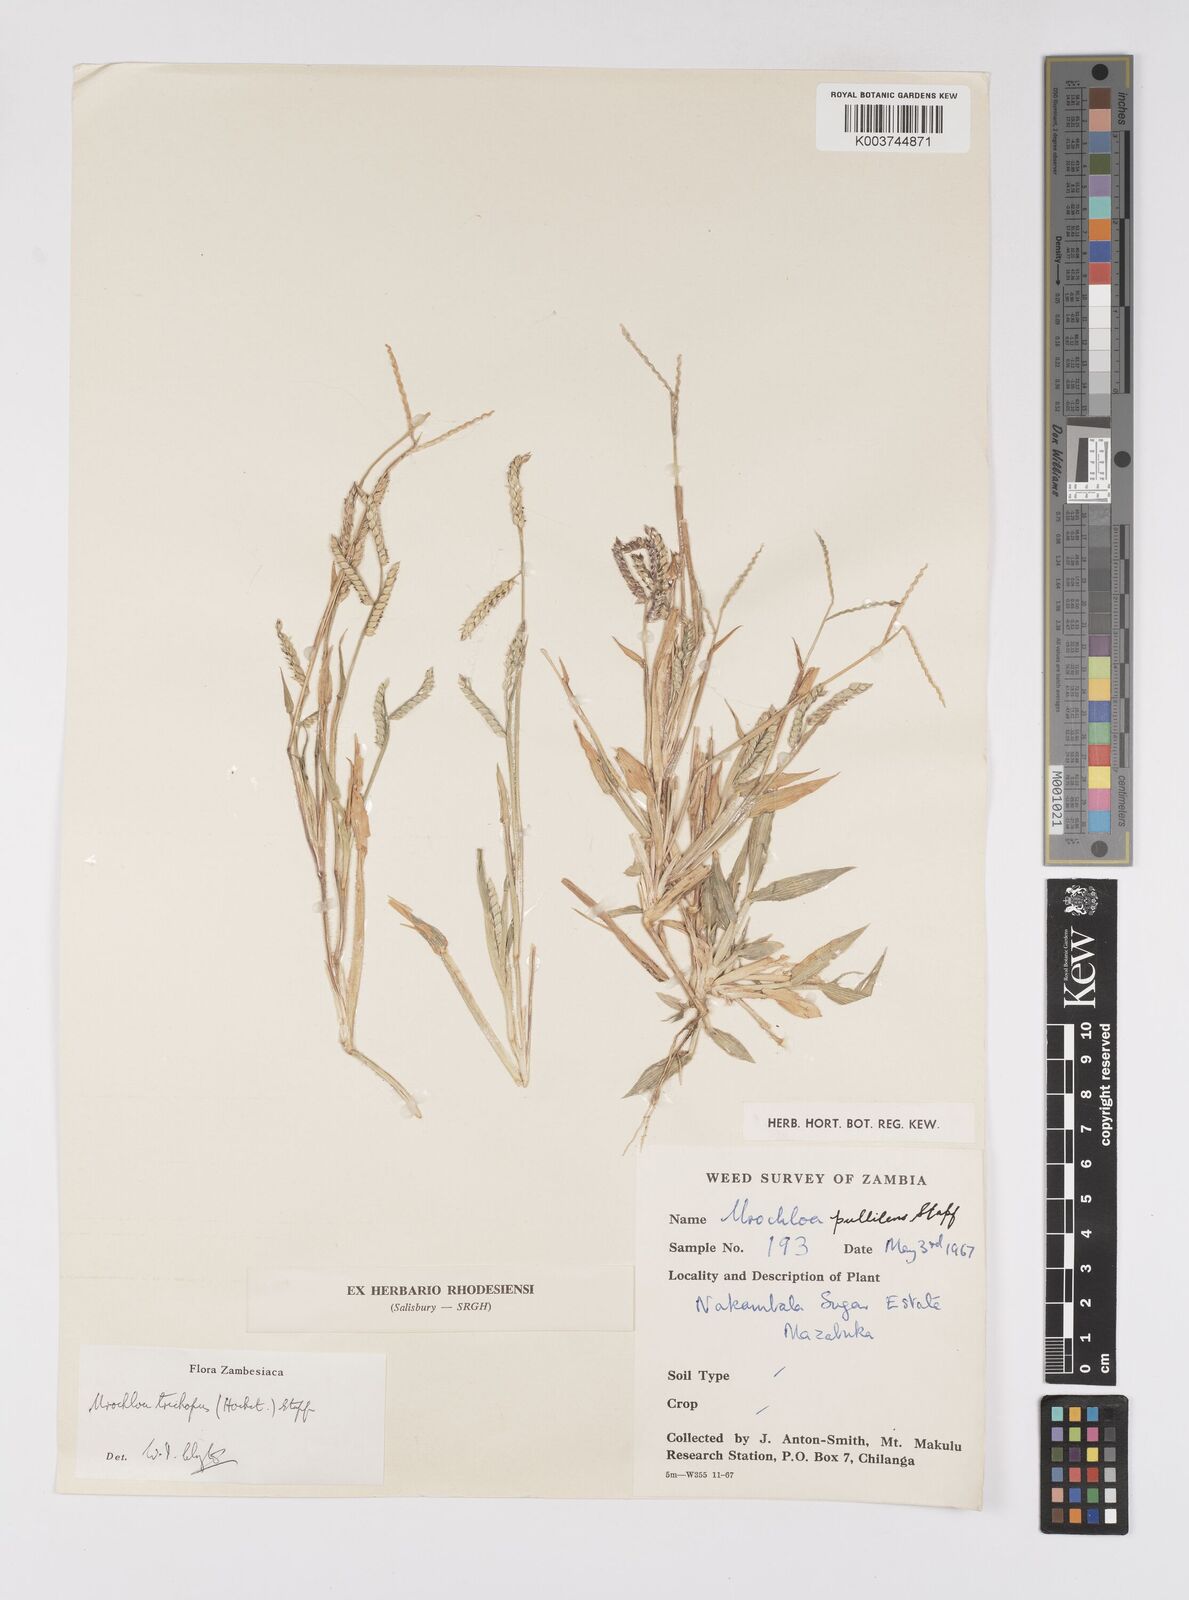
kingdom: Plantae
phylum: Tracheophyta
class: Liliopsida
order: Poales
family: Poaceae
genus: Urochloa
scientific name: Urochloa trichopus
